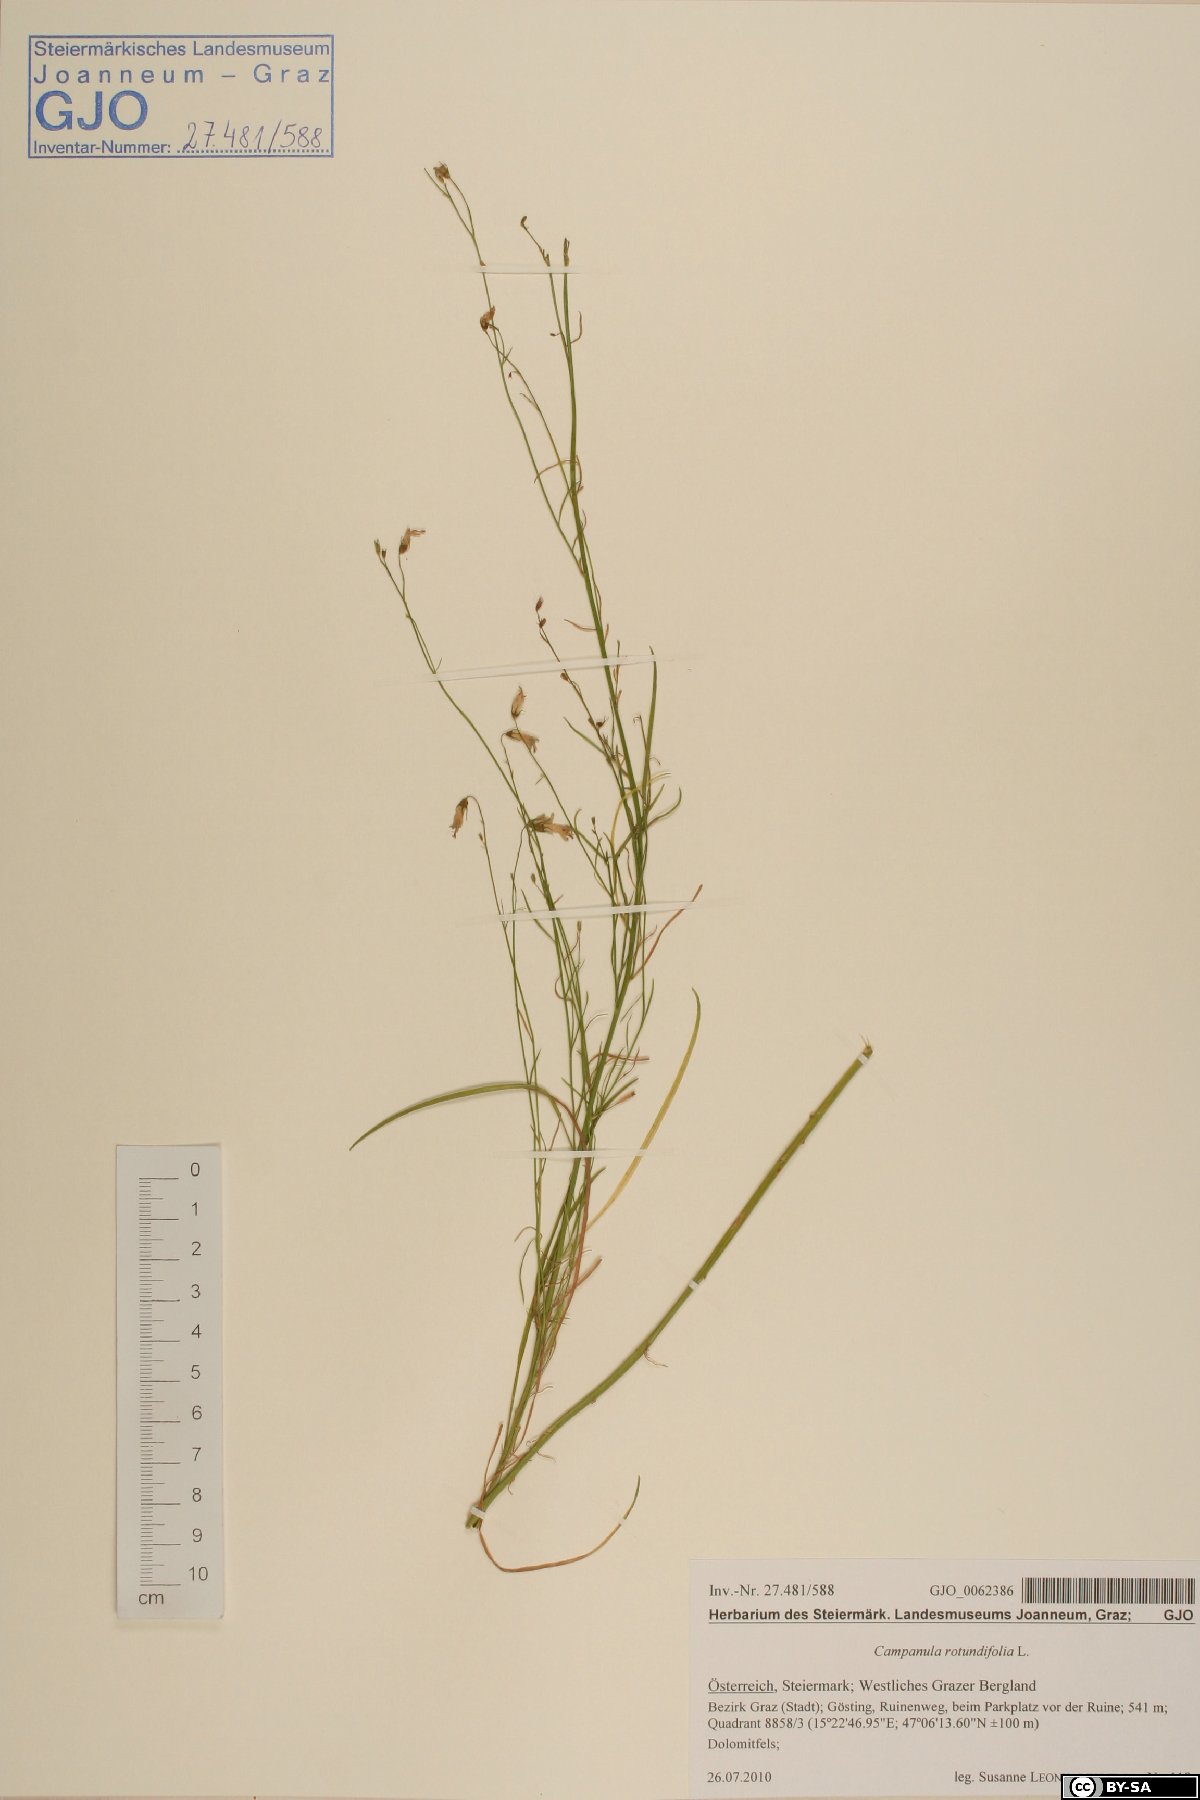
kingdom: Plantae
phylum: Tracheophyta
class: Magnoliopsida
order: Asterales
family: Campanulaceae
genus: Campanula
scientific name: Campanula rotundifolia
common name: Harebell
